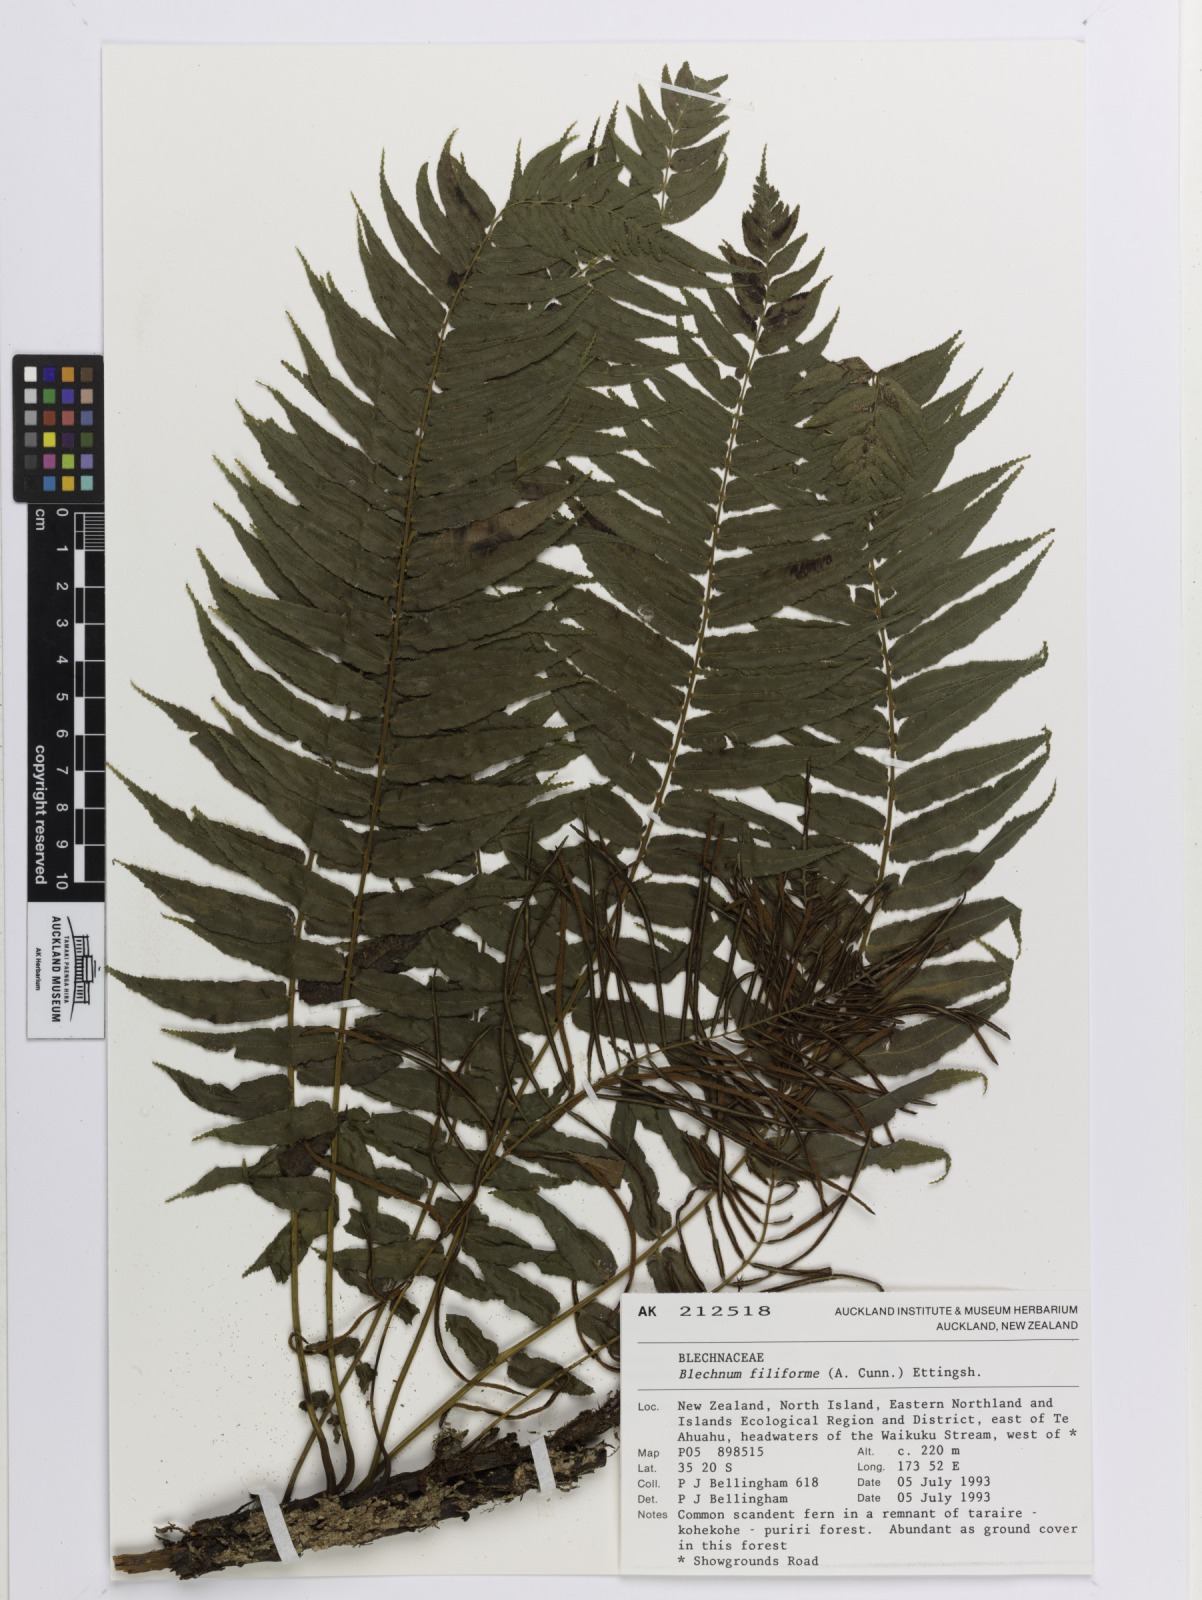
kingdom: Plantae
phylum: Tracheophyta
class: Polypodiopsida
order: Polypodiales
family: Blechnaceae
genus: Icarus
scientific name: Icarus filiformis
